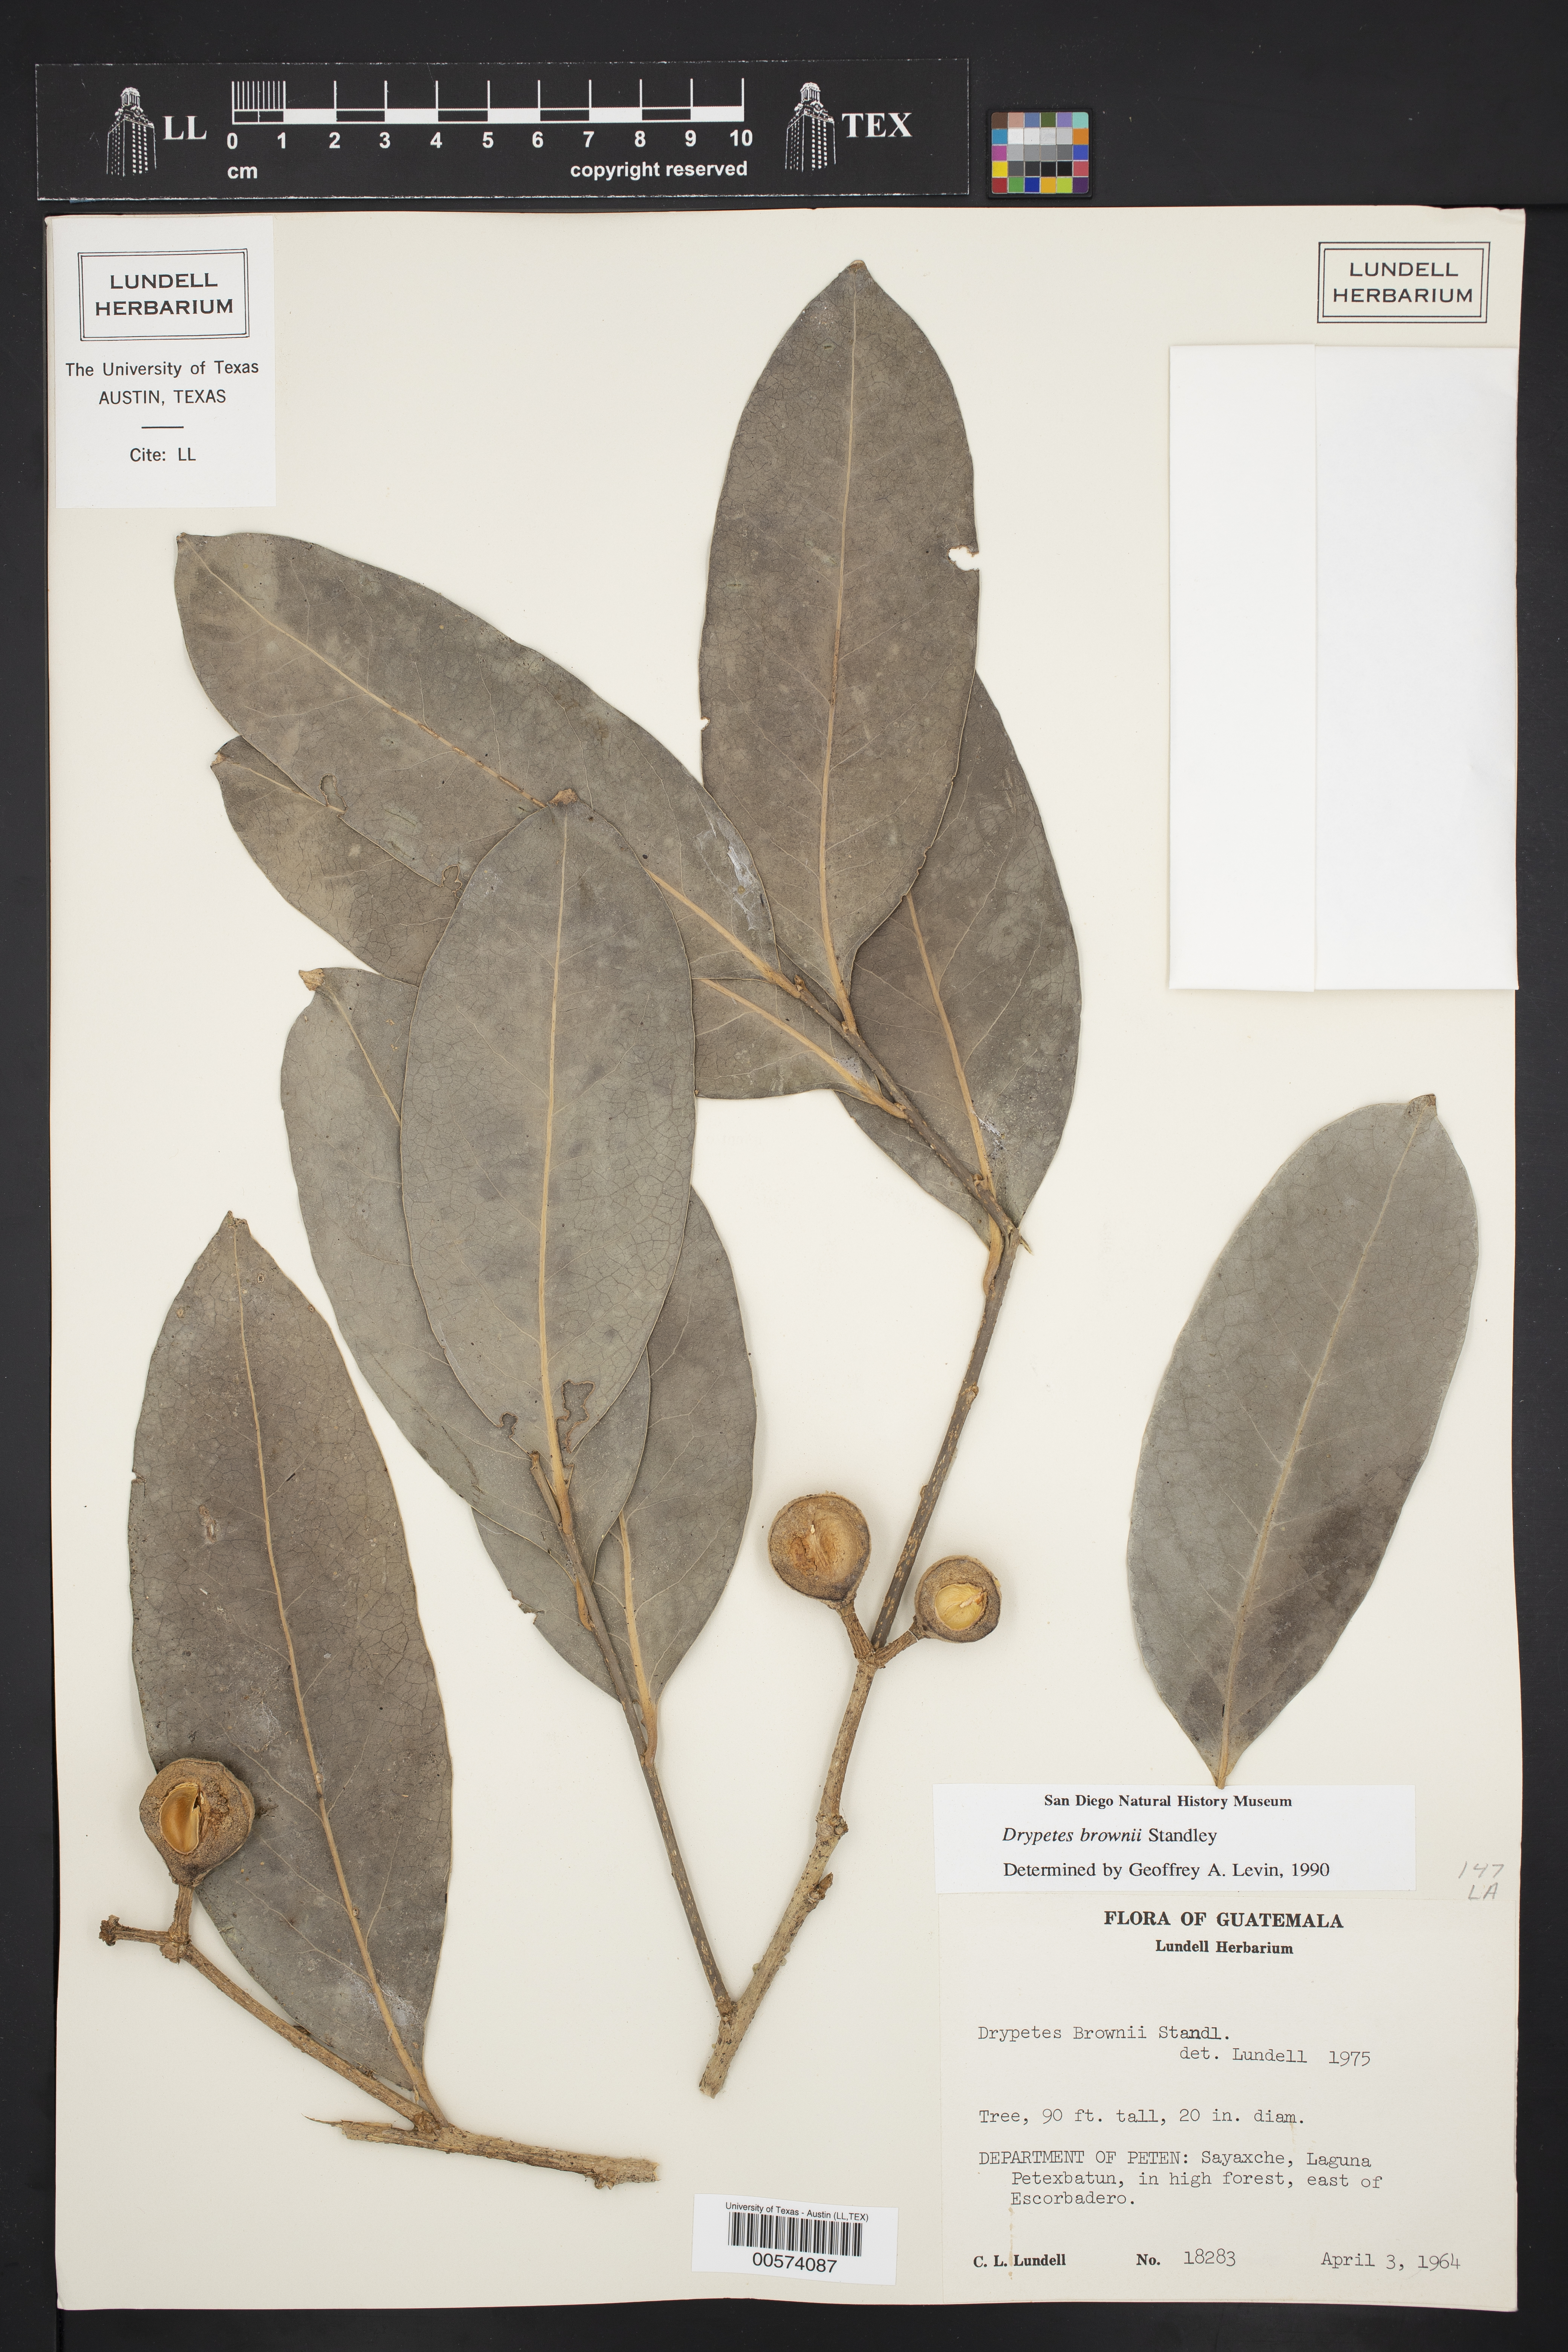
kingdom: Plantae
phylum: Tracheophyta
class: Magnoliopsida
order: Malpighiales
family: Putranjivaceae
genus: Drypetes
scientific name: Drypetes brownii
